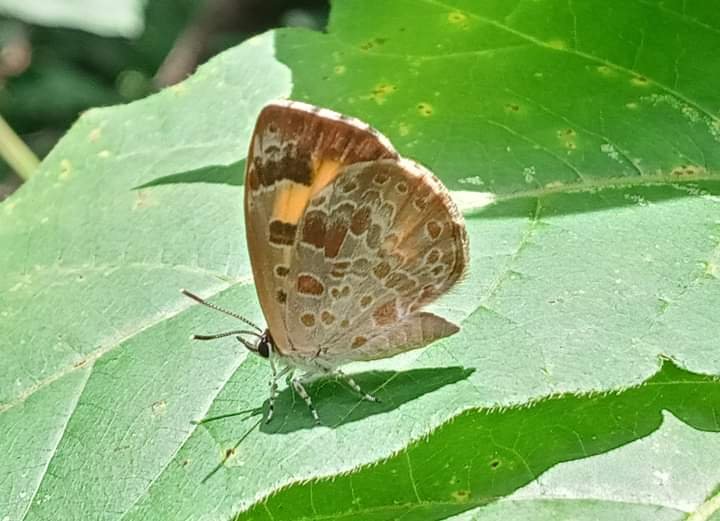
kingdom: Animalia
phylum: Arthropoda
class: Insecta
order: Lepidoptera
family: Lycaenidae
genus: Feniseca
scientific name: Feniseca tarquinius
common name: Harvester
